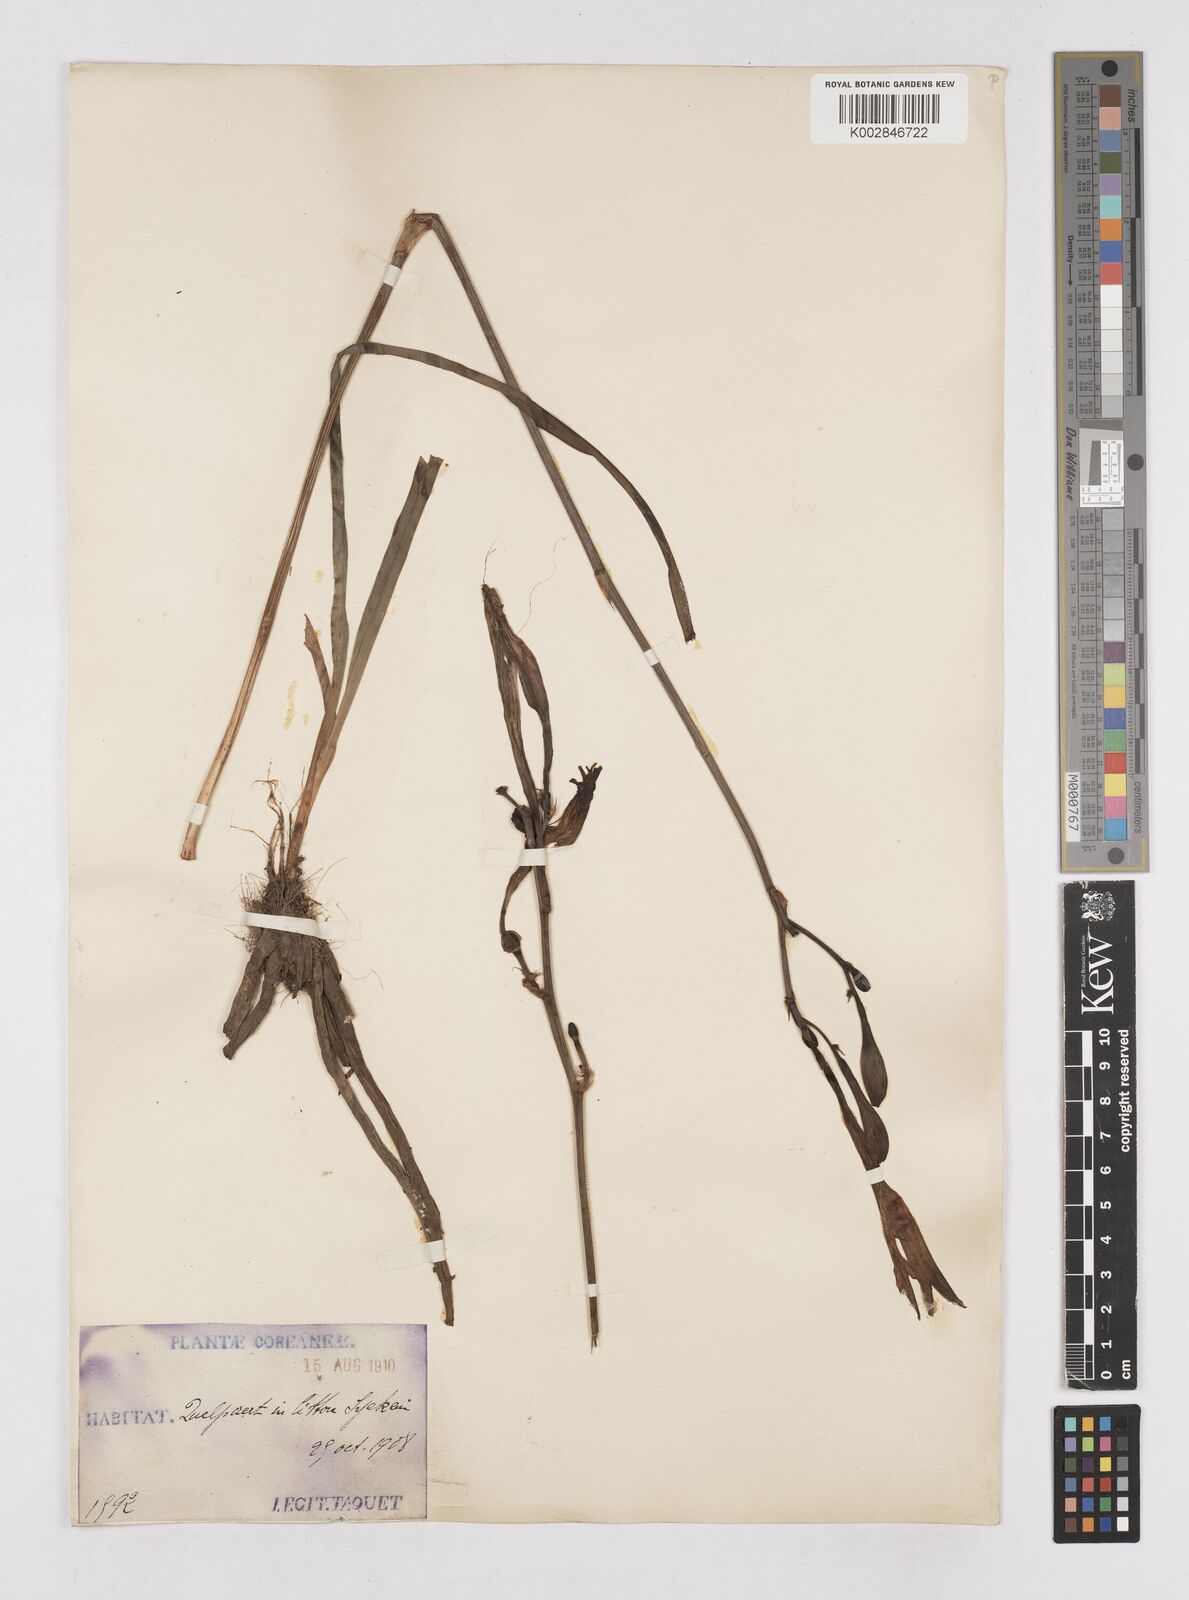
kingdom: Plantae
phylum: Tracheophyta
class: Liliopsida
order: Asparagales
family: Asphodelaceae
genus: Hemerocallis
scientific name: Hemerocallis
